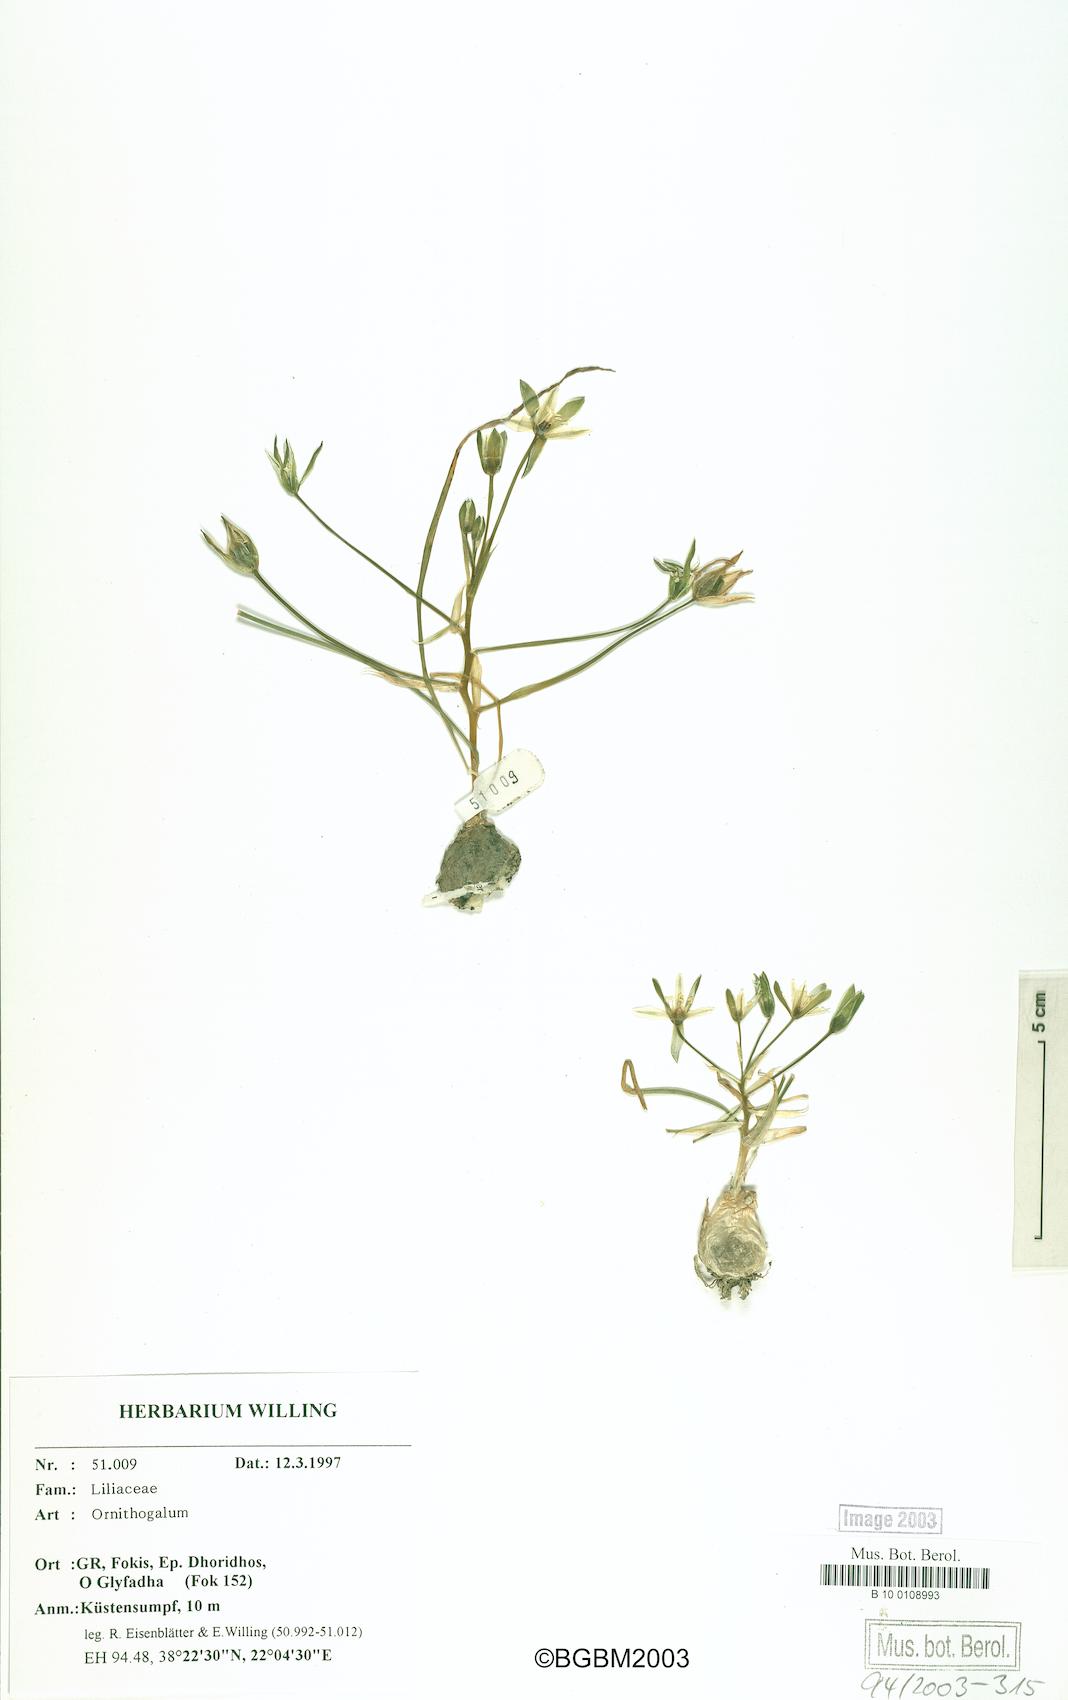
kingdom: Plantae
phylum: Tracheophyta
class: Liliopsida
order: Asparagales
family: Asparagaceae
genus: Ornithogalum
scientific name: Ornithogalum
